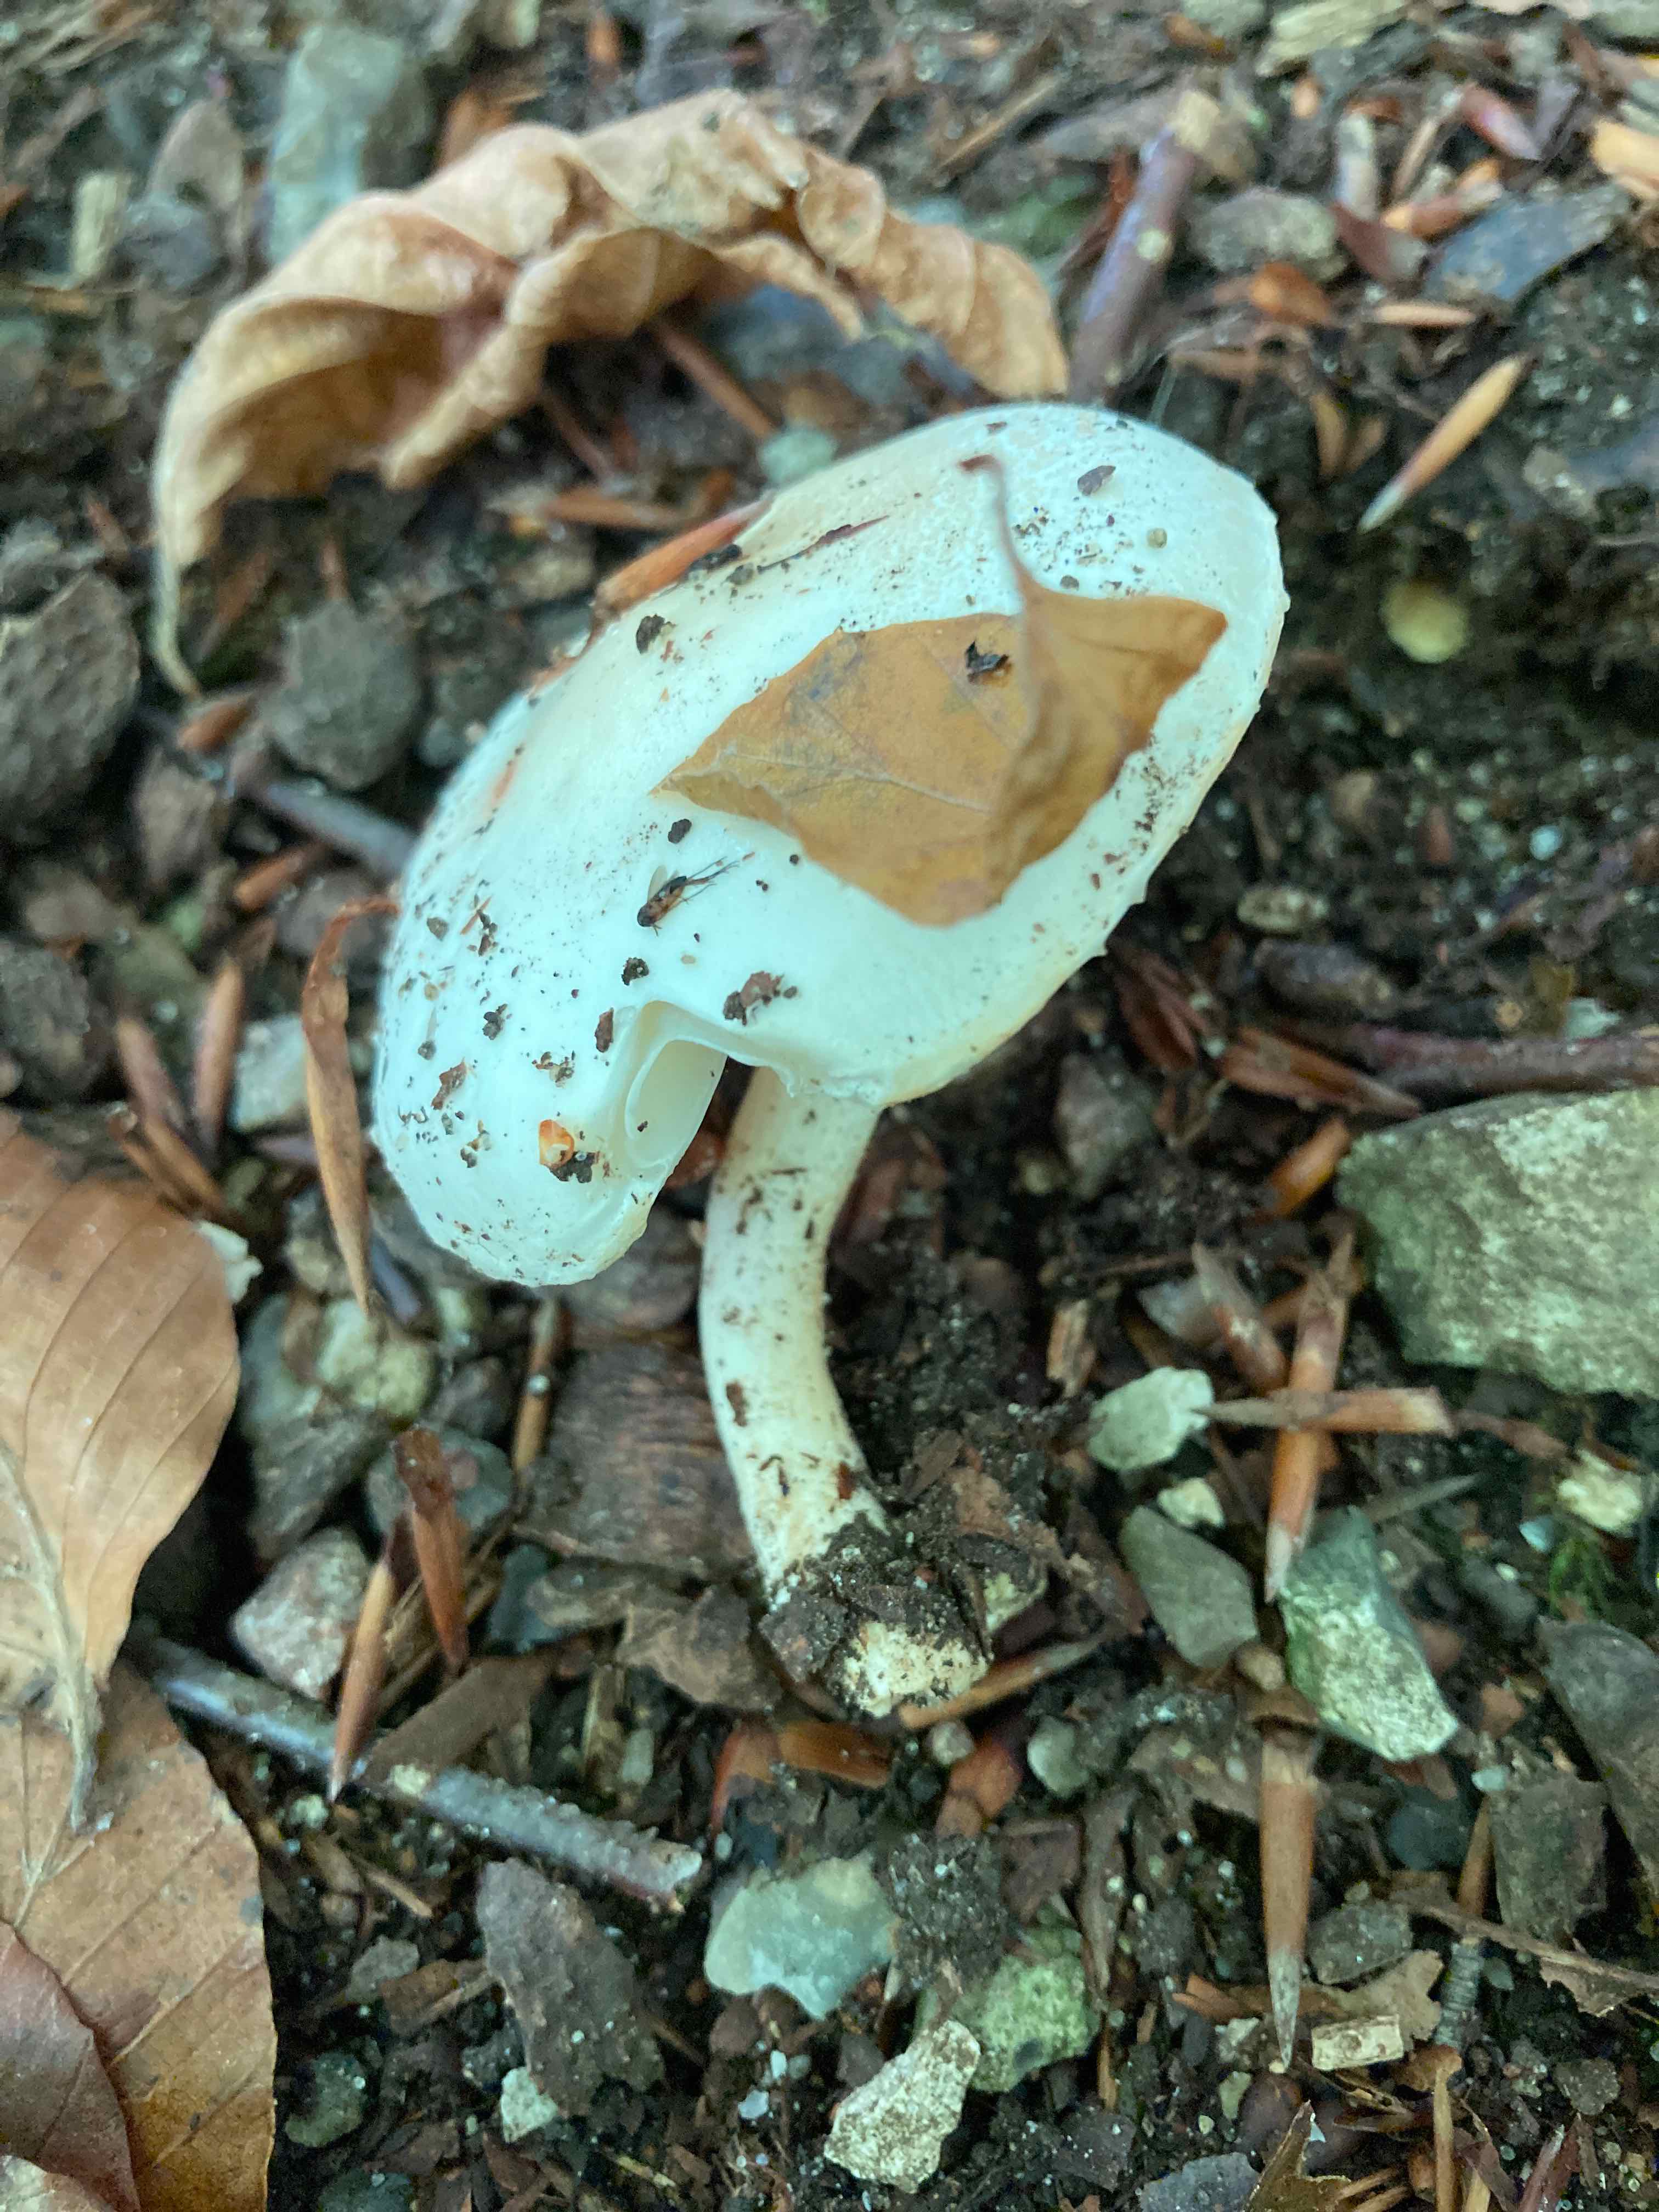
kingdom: Fungi
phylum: Basidiomycota
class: Agaricomycetes
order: Agaricales
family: Hygrophoraceae
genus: Hygrophorus
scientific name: Hygrophorus chrysodon
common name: gulfnugget sneglehat
